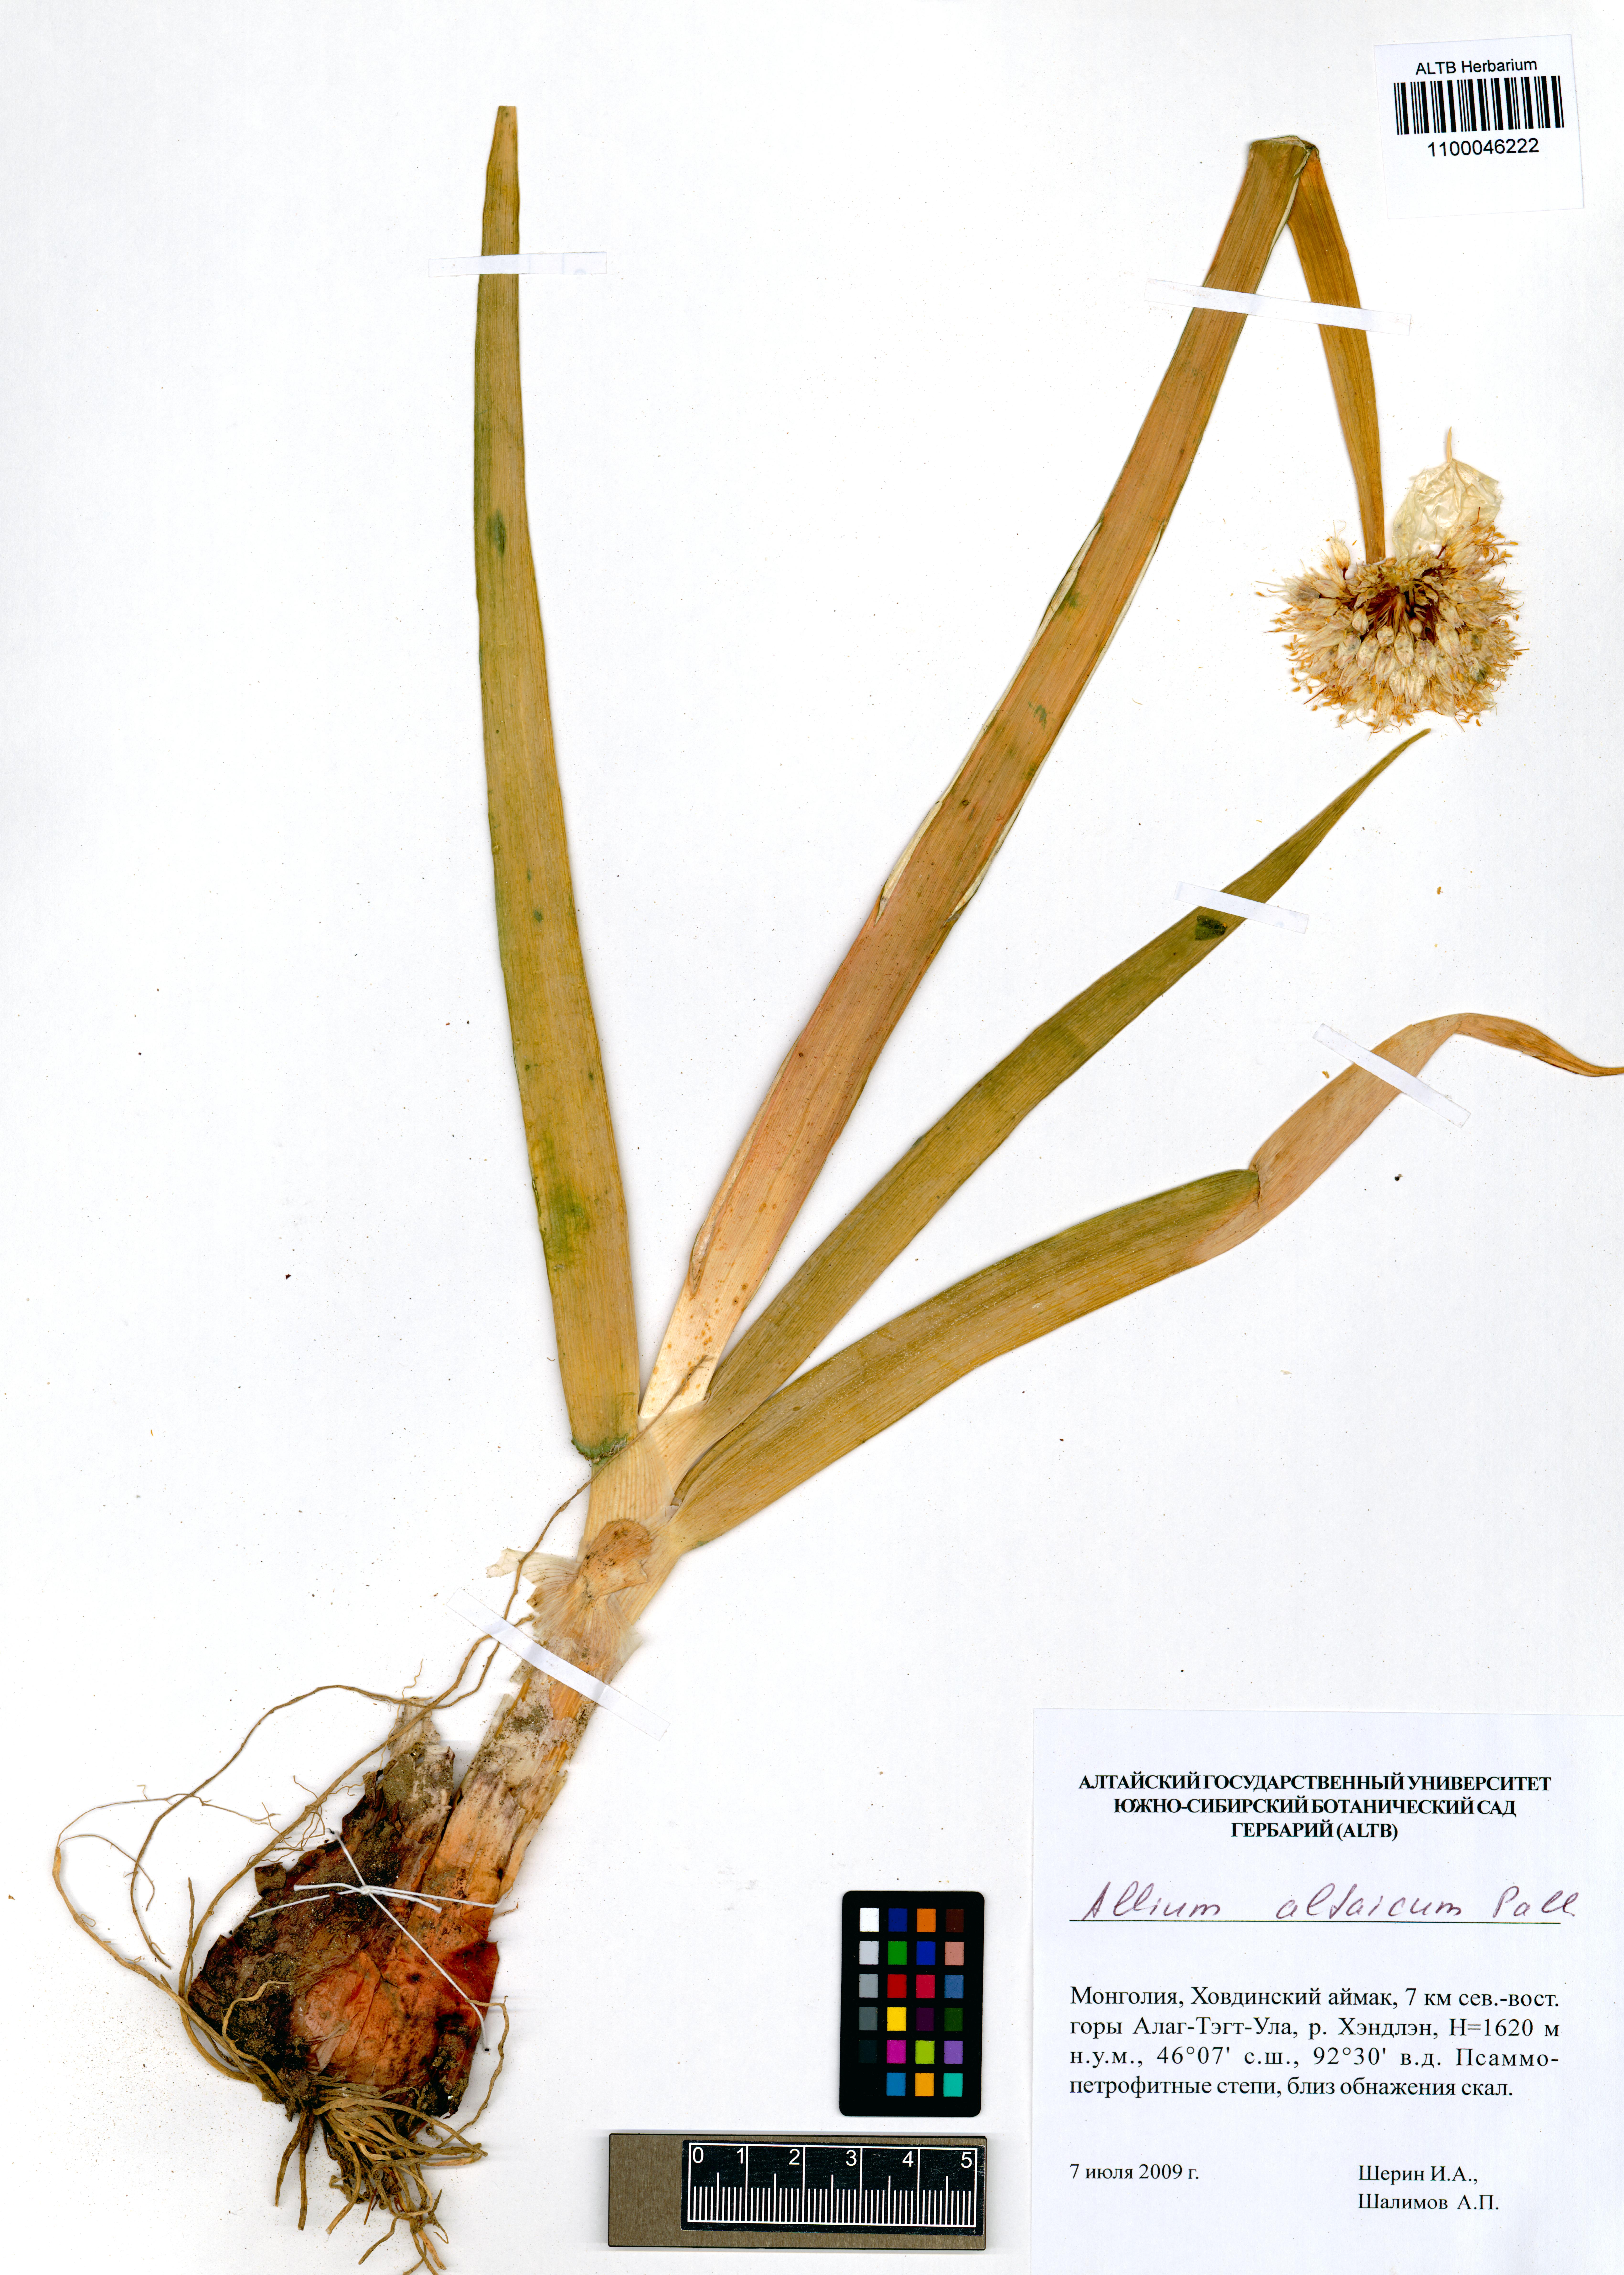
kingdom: Plantae
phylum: Tracheophyta
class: Liliopsida
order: Asparagales
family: Amaryllidaceae
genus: Allium
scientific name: Allium altaicum
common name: Altai onion
